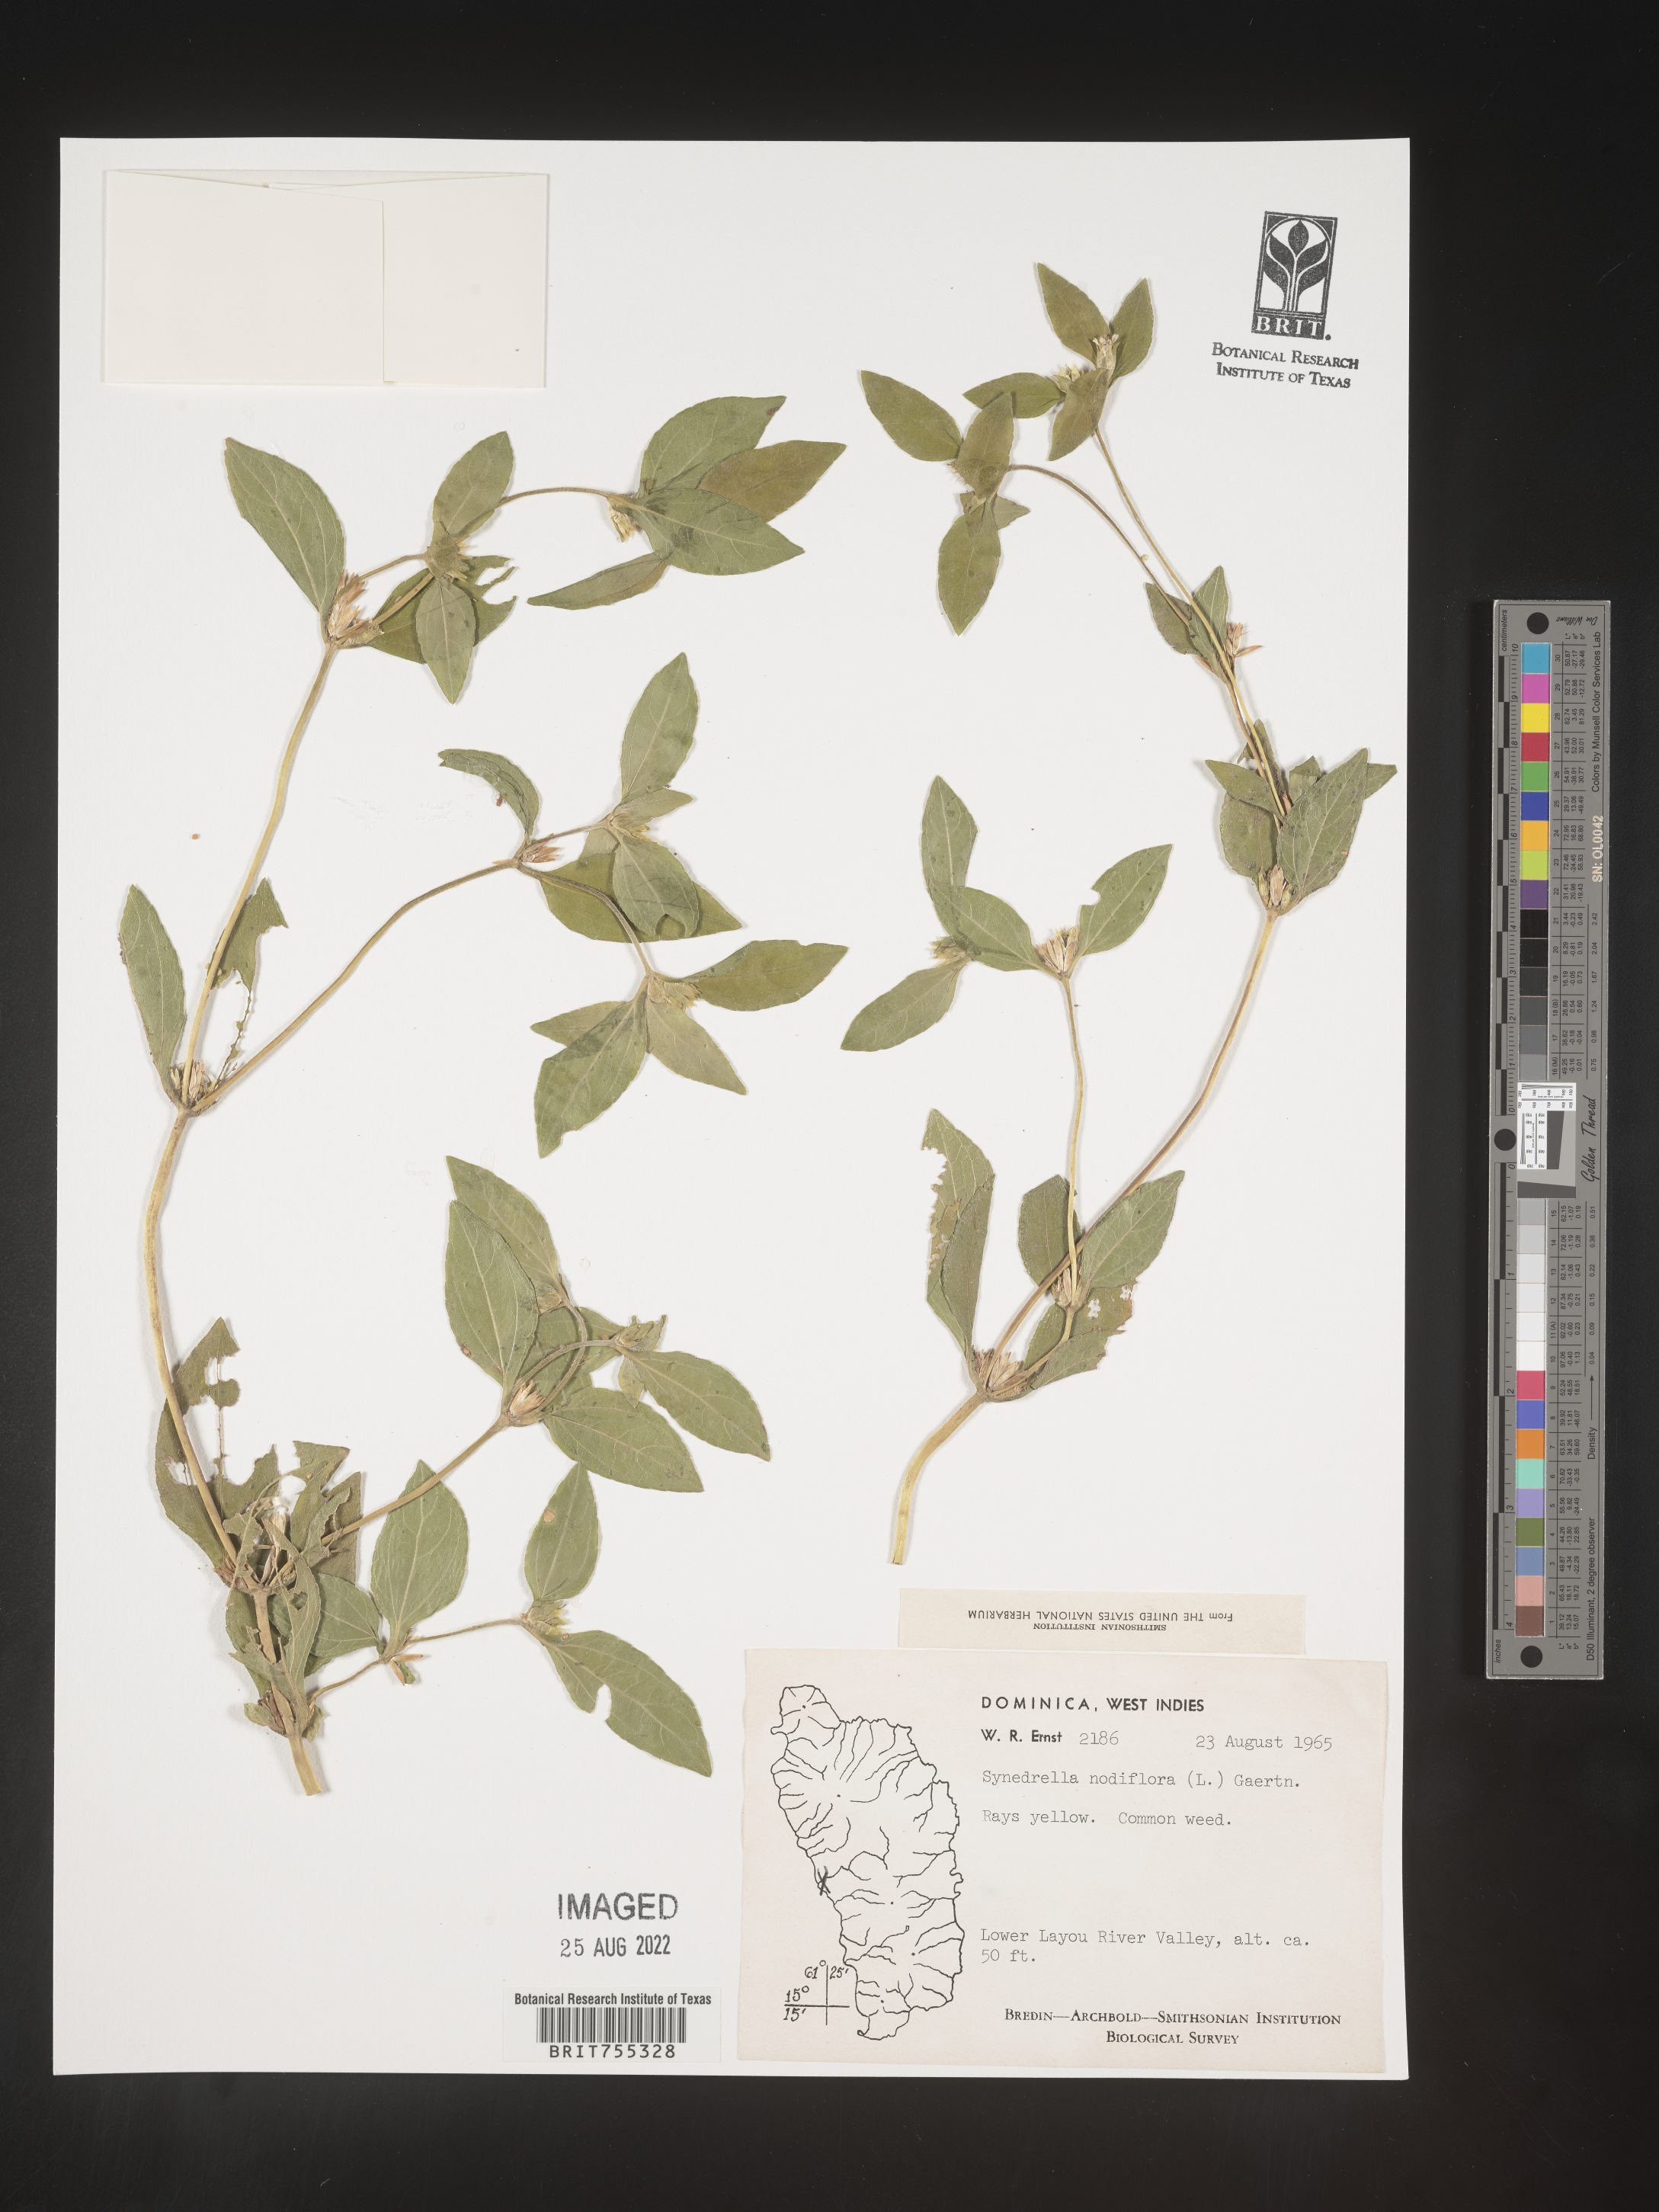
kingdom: Plantae
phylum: Tracheophyta
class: Magnoliopsida
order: Asterales
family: Asteraceae
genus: Synedrella
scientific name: Synedrella
